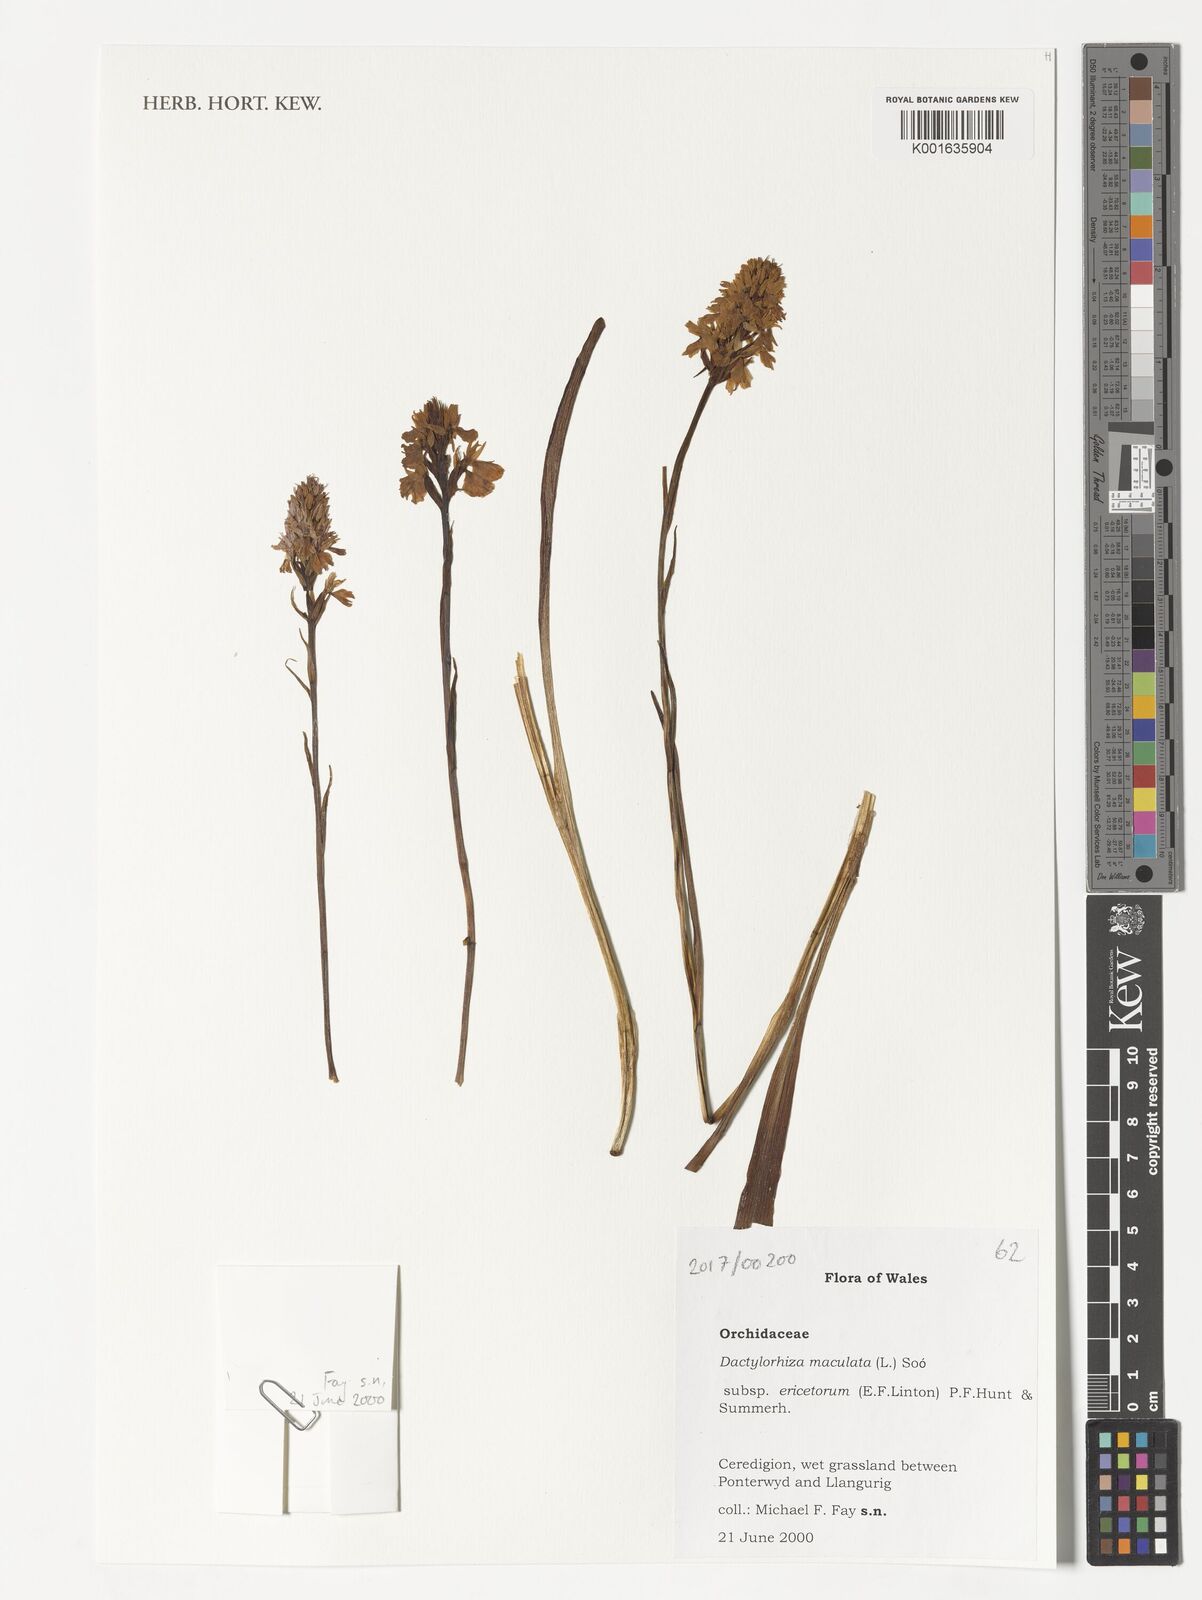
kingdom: Plantae
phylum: Tracheophyta
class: Liliopsida
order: Asparagales
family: Orchidaceae
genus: Dactylorhiza
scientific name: Dactylorhiza maculata
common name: Heath spotted-orchid
